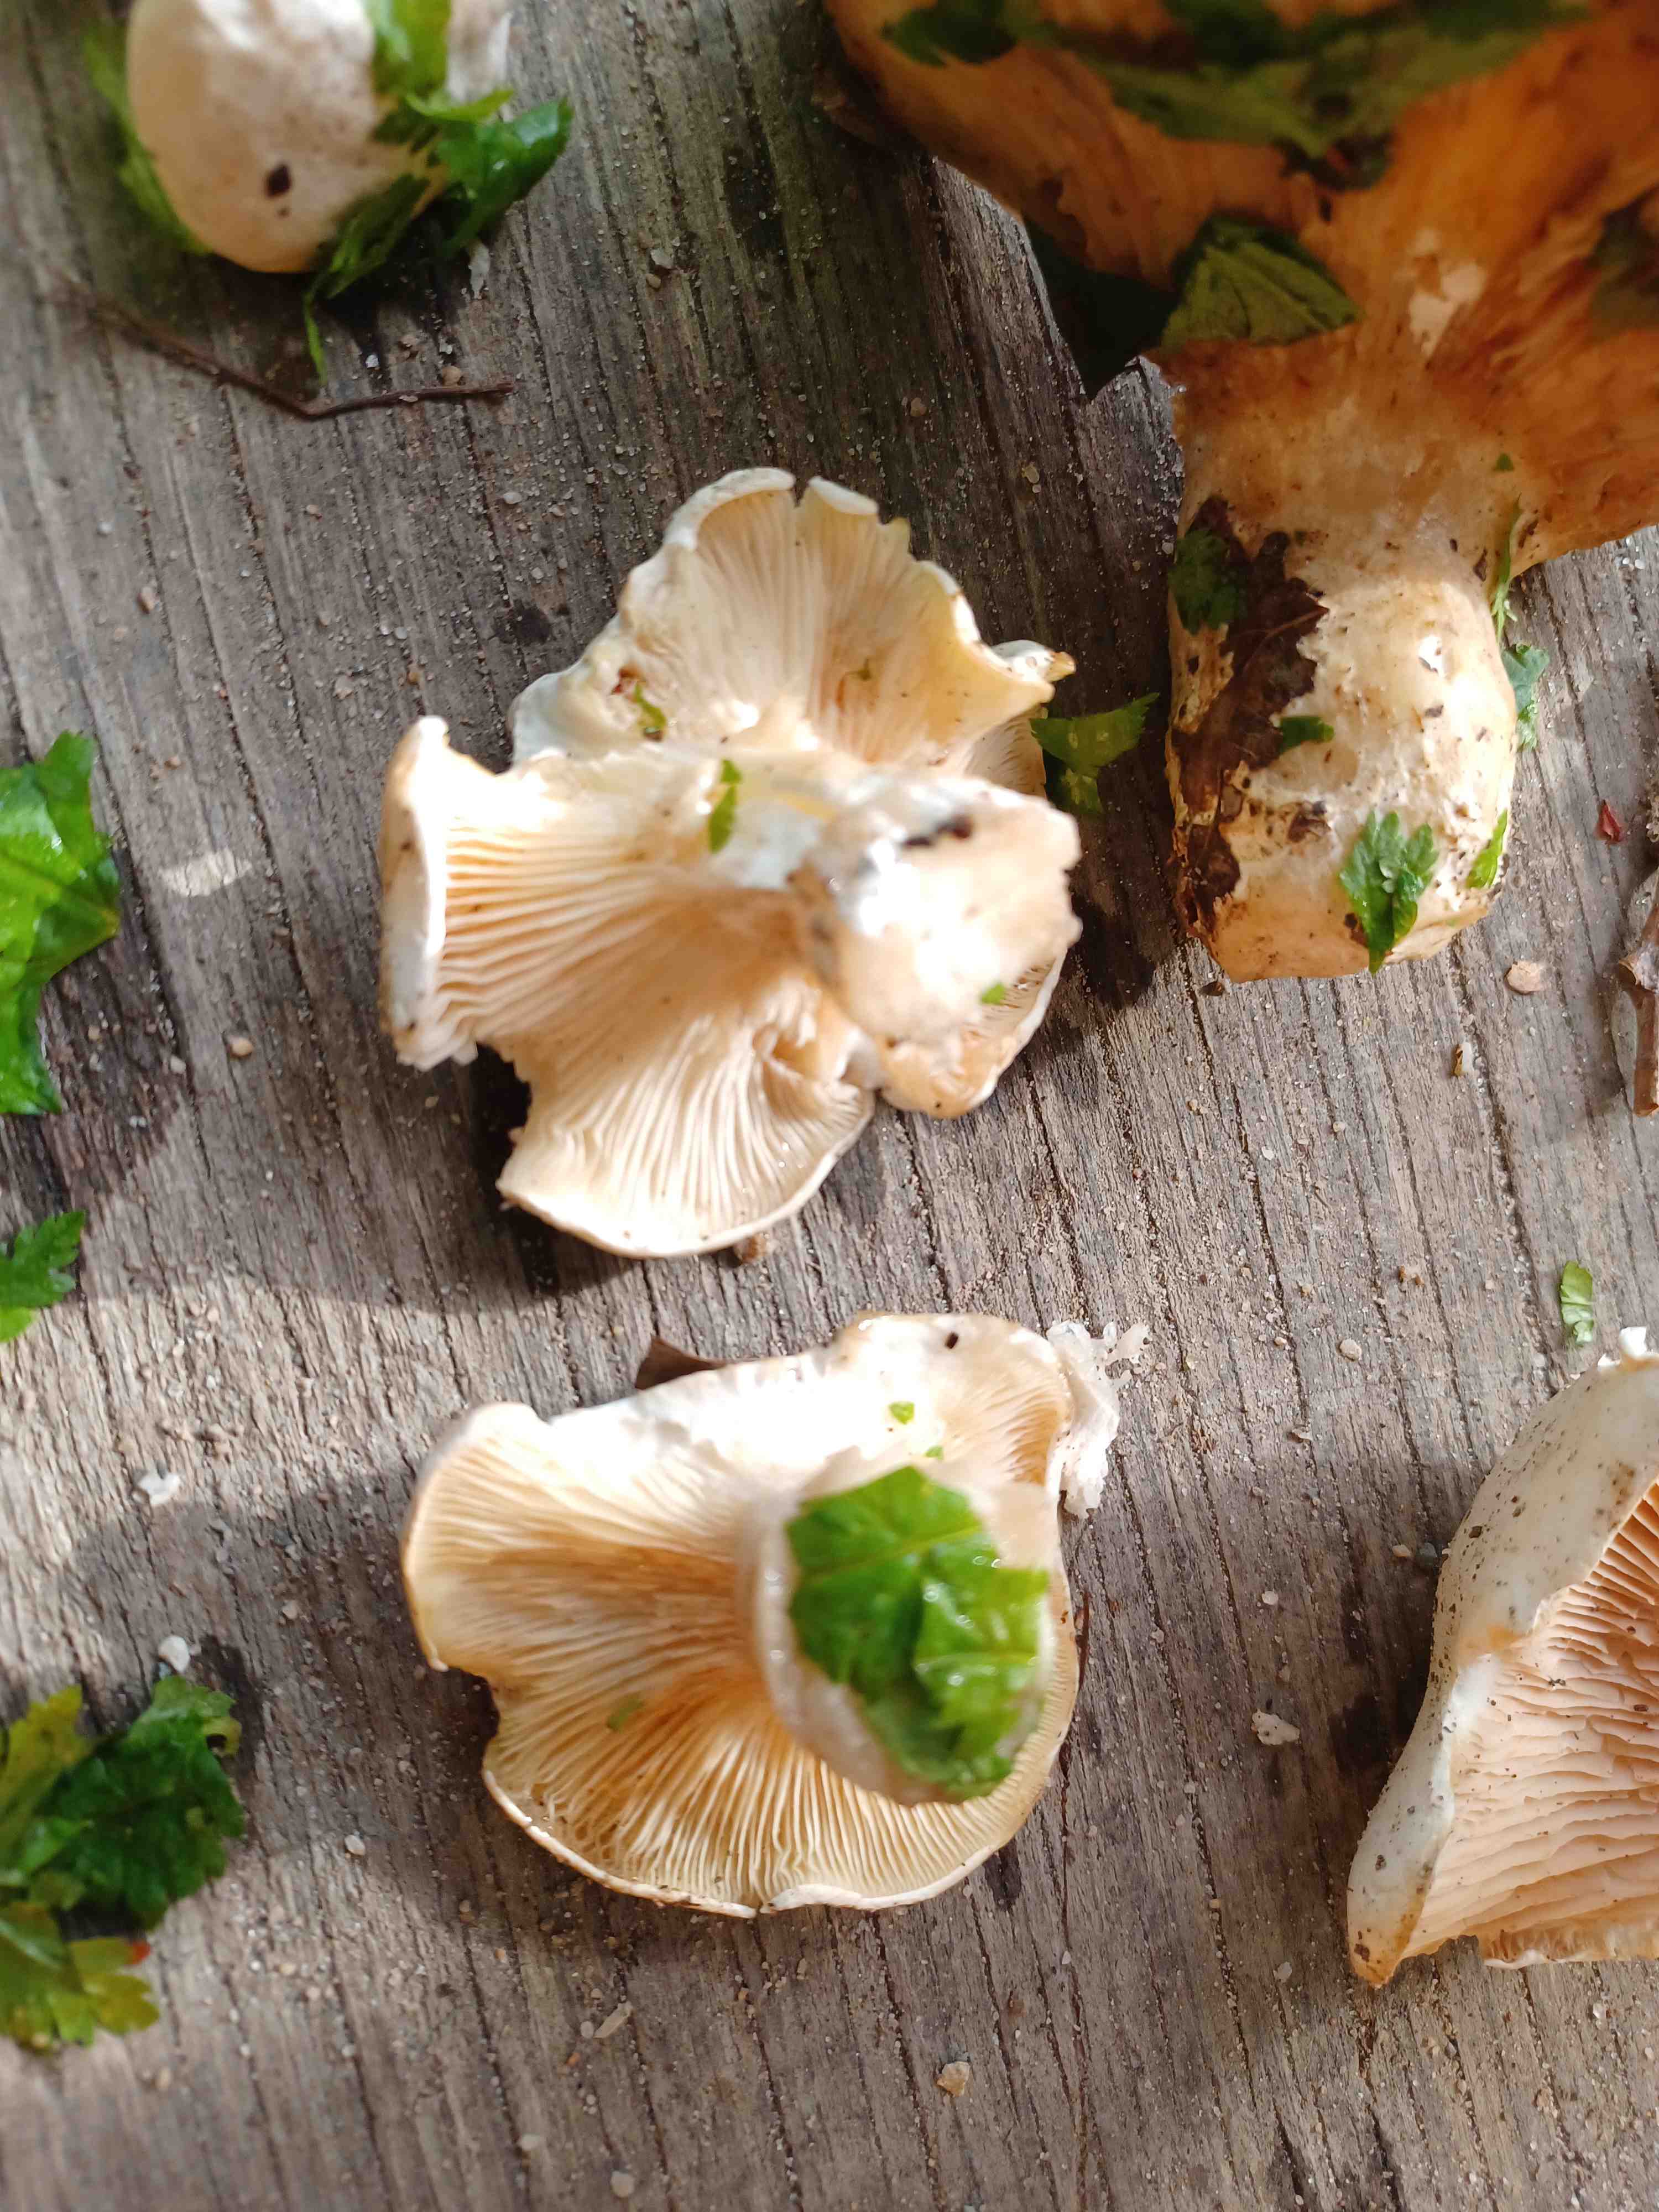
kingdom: Fungi
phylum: Basidiomycota
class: Agaricomycetes
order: Agaricales
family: Entolomataceae
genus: Clitopilus
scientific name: Clitopilus prunulus
